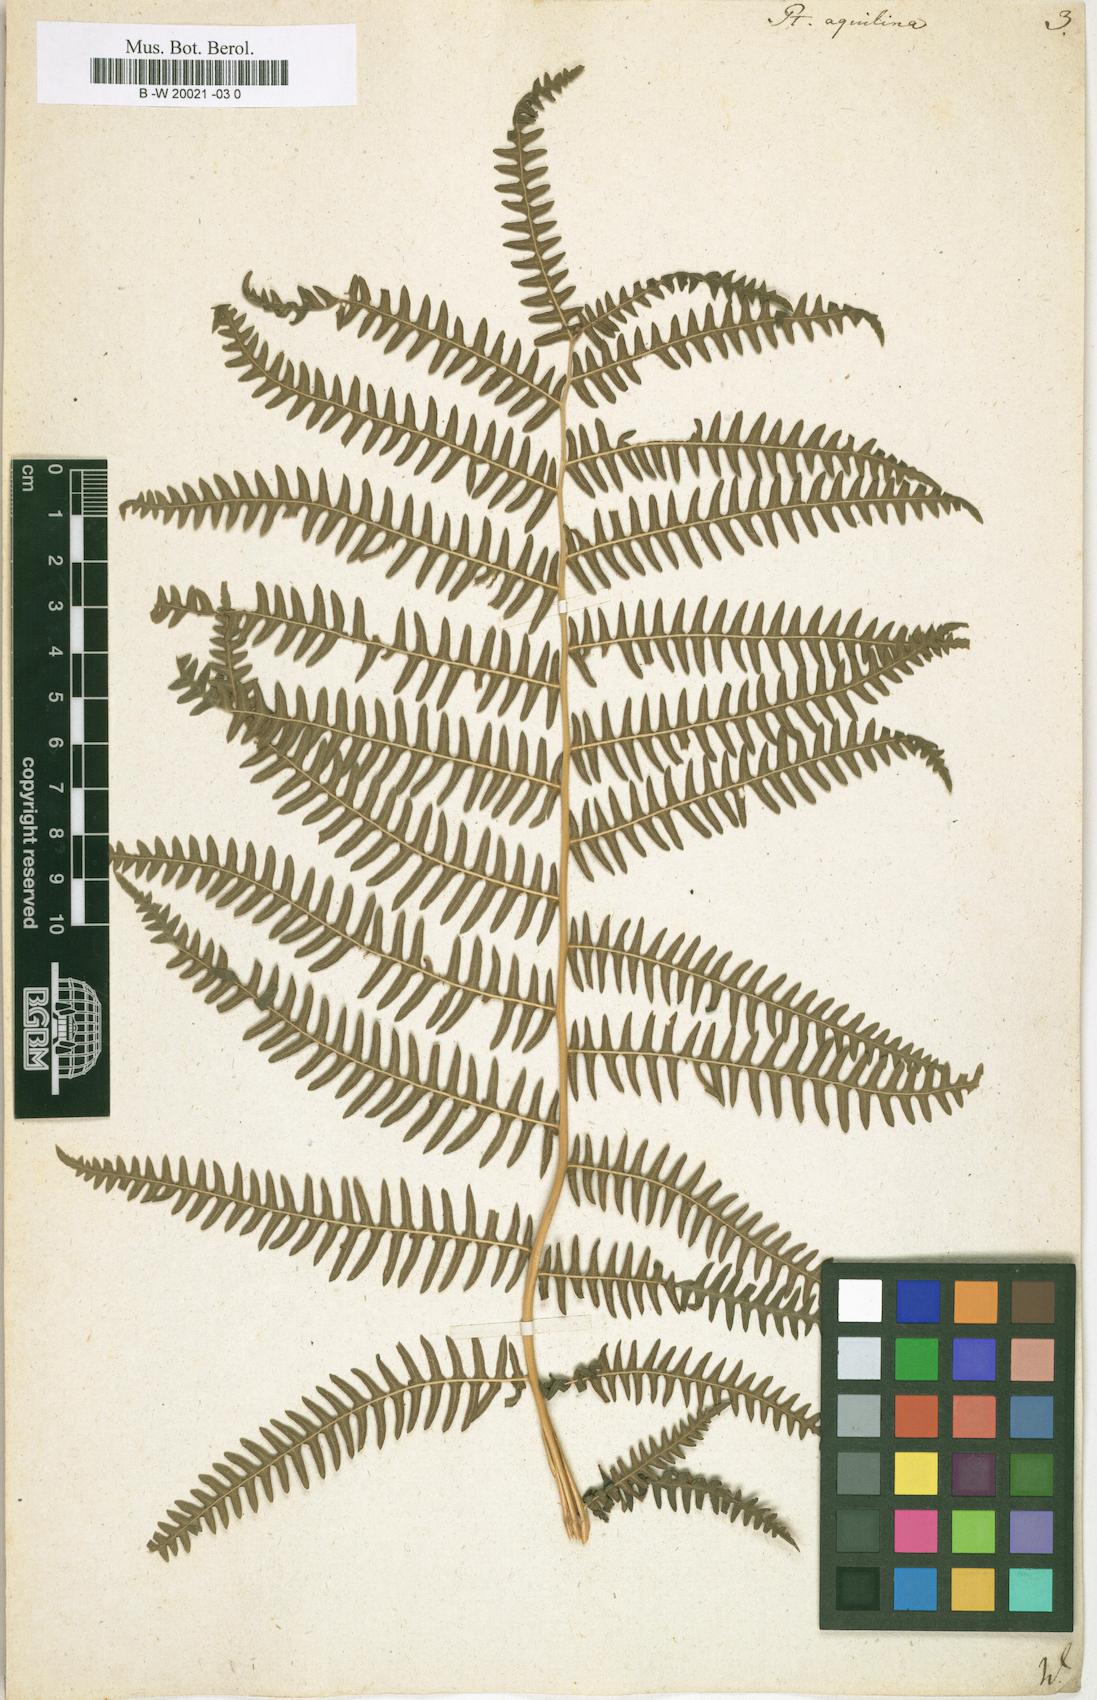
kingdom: Plantae
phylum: Tracheophyta
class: Polypodiopsida
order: Polypodiales
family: Dennstaedtiaceae
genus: Pteridium
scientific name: Pteridium aquilinum
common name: Bracken
